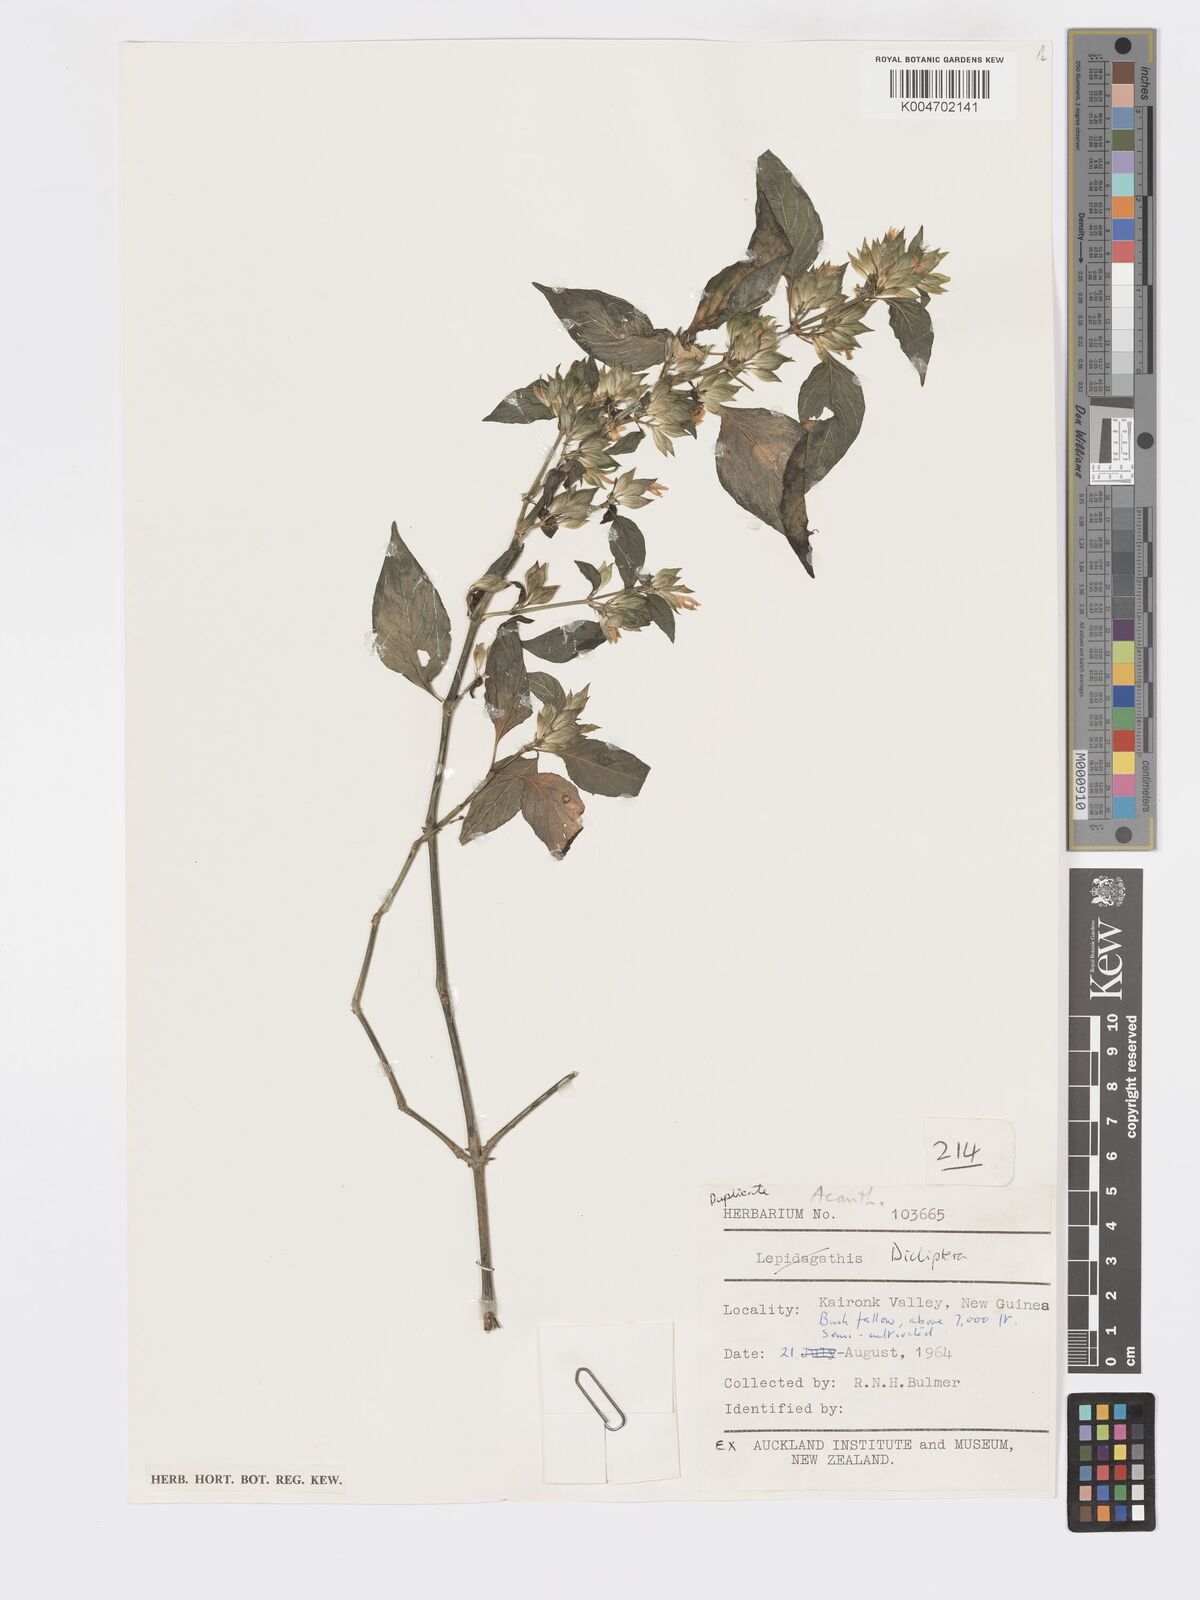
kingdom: Plantae
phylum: Tracheophyta
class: Magnoliopsida
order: Lamiales
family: Acanthaceae
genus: Dicliptera
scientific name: Dicliptera
